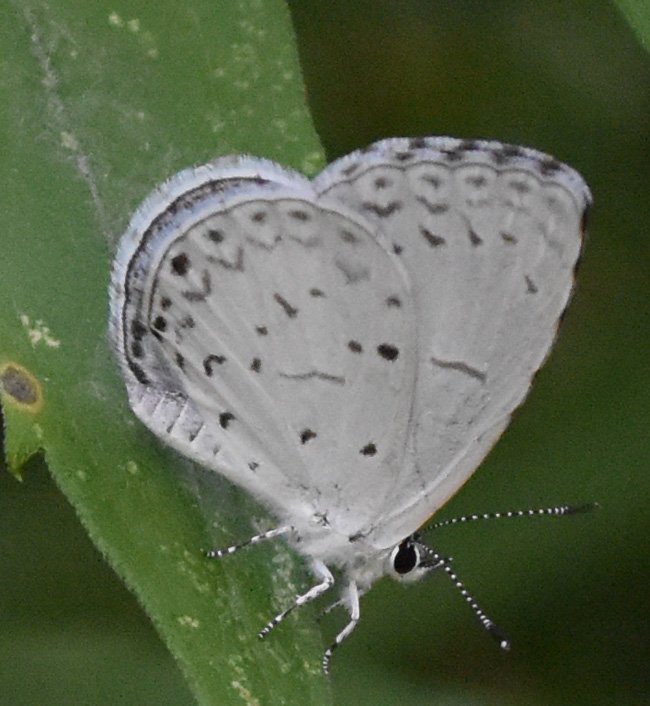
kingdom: Animalia
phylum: Arthropoda
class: Insecta
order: Lepidoptera
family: Lycaenidae
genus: Celastrina
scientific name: Celastrina
